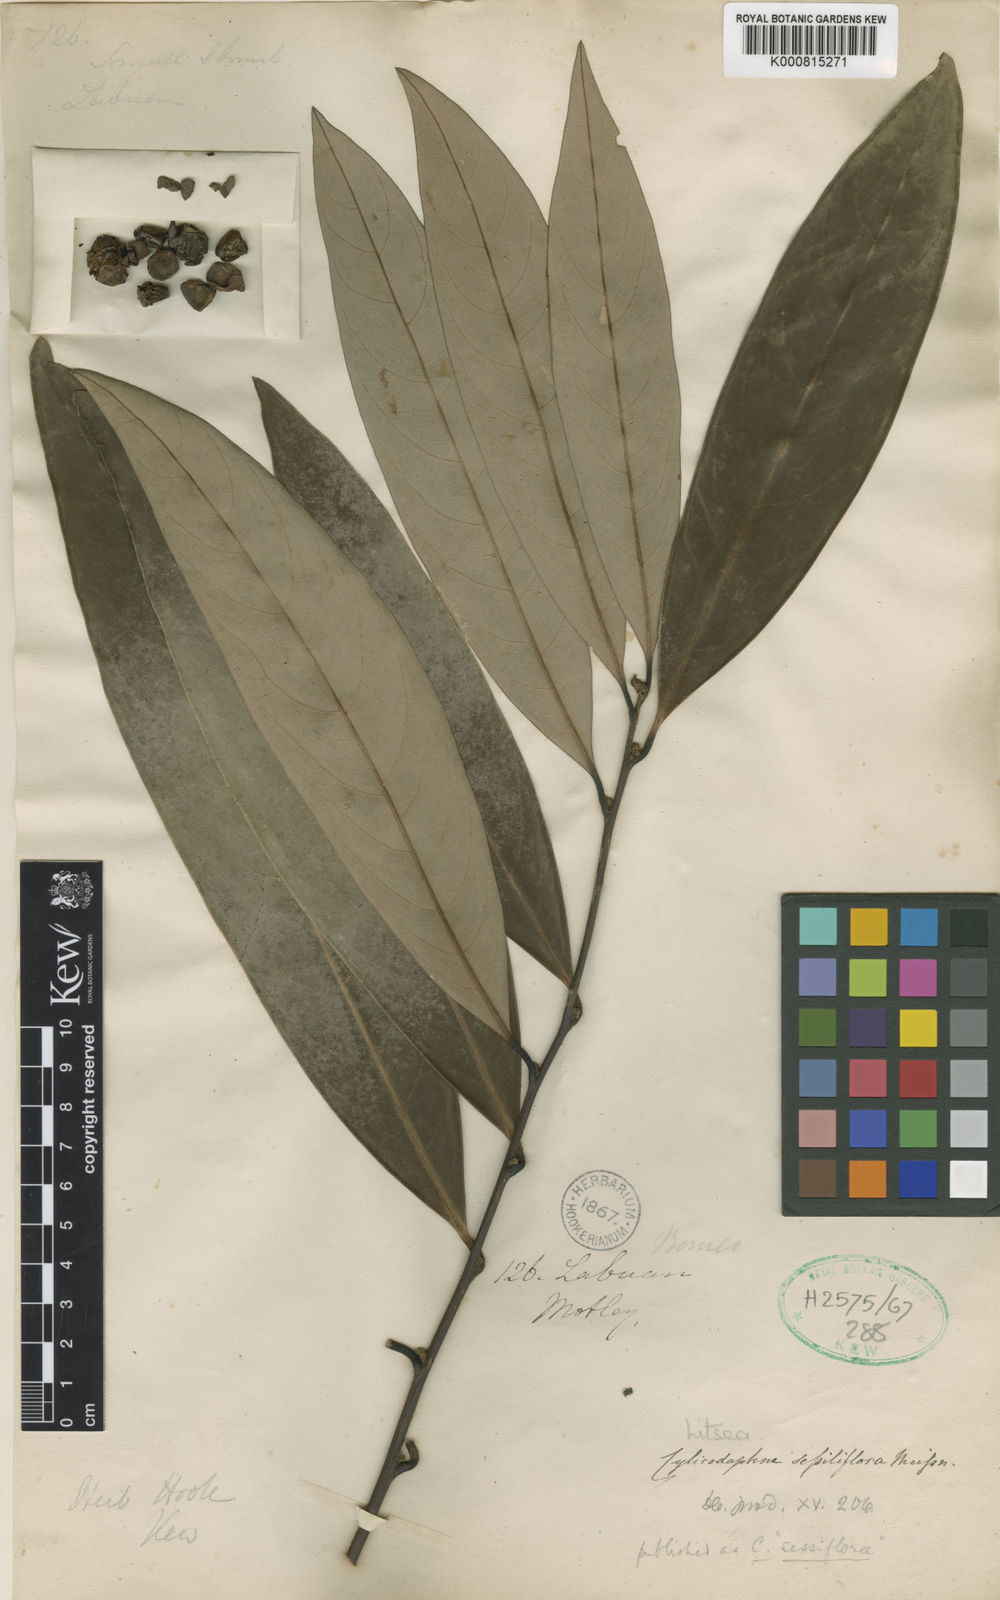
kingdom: Plantae
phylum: Tracheophyta
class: Magnoliopsida
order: Laurales
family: Lauraceae
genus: Litsea
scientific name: Litsea sessilis
